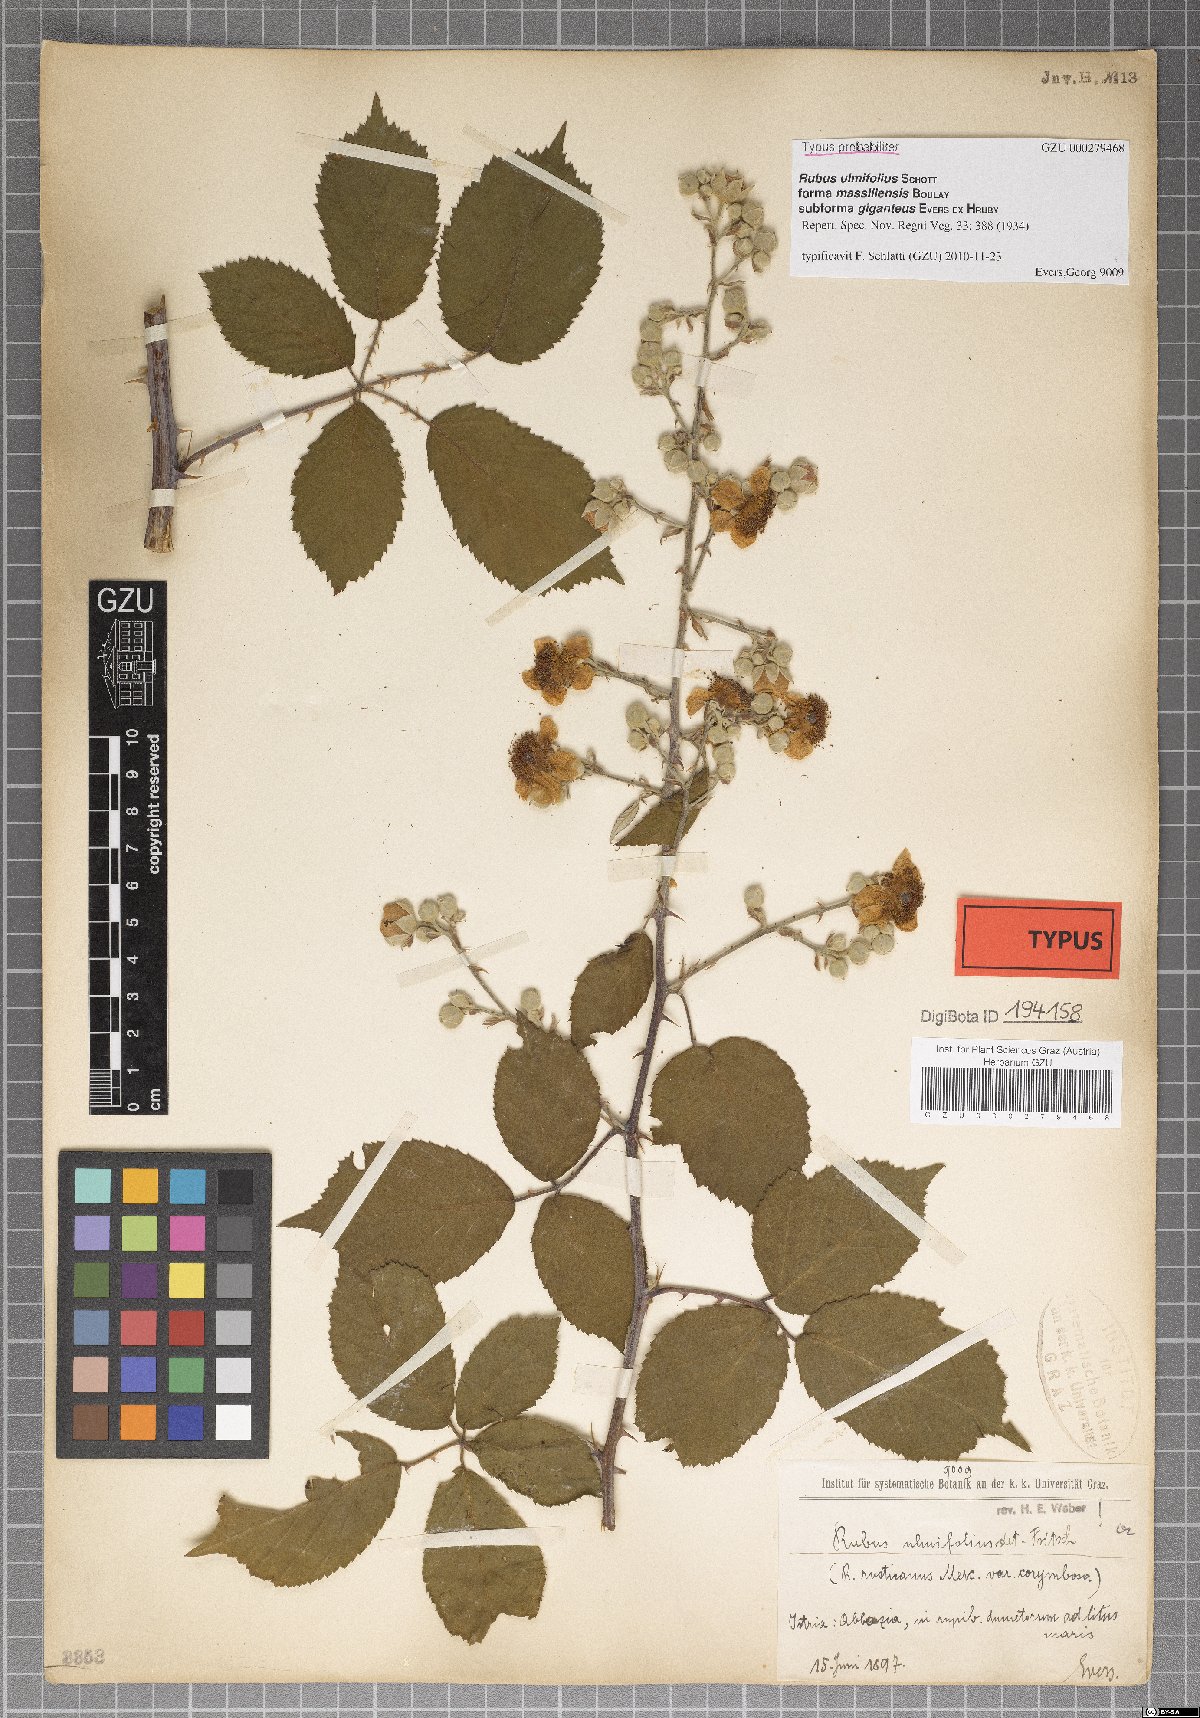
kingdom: Plantae
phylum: Tracheophyta
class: Magnoliopsida
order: Rosales
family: Rosaceae
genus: Rubus
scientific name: Rubus ulmifolius
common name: Elmleaf blackberry
